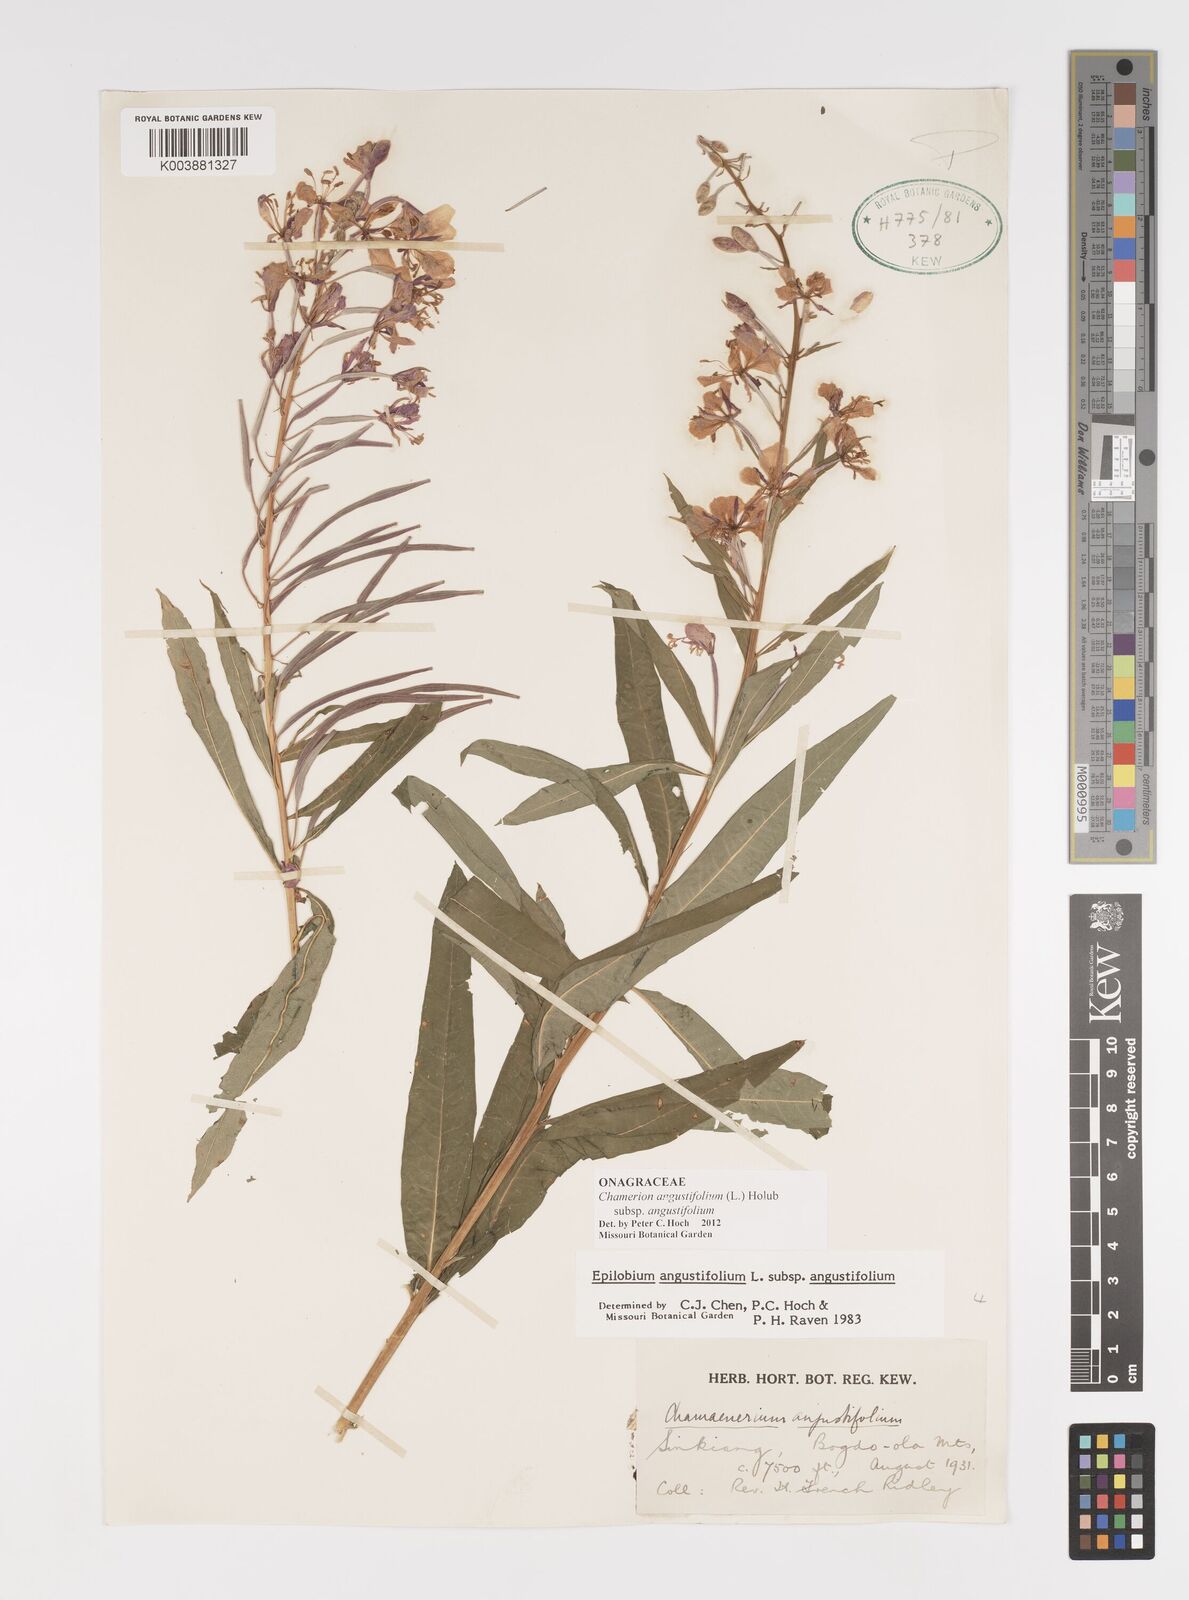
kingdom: Plantae
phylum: Tracheophyta
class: Magnoliopsida
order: Myrtales
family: Onagraceae
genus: Chamaenerion
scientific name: Chamaenerion angustifolium
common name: Fireweed
